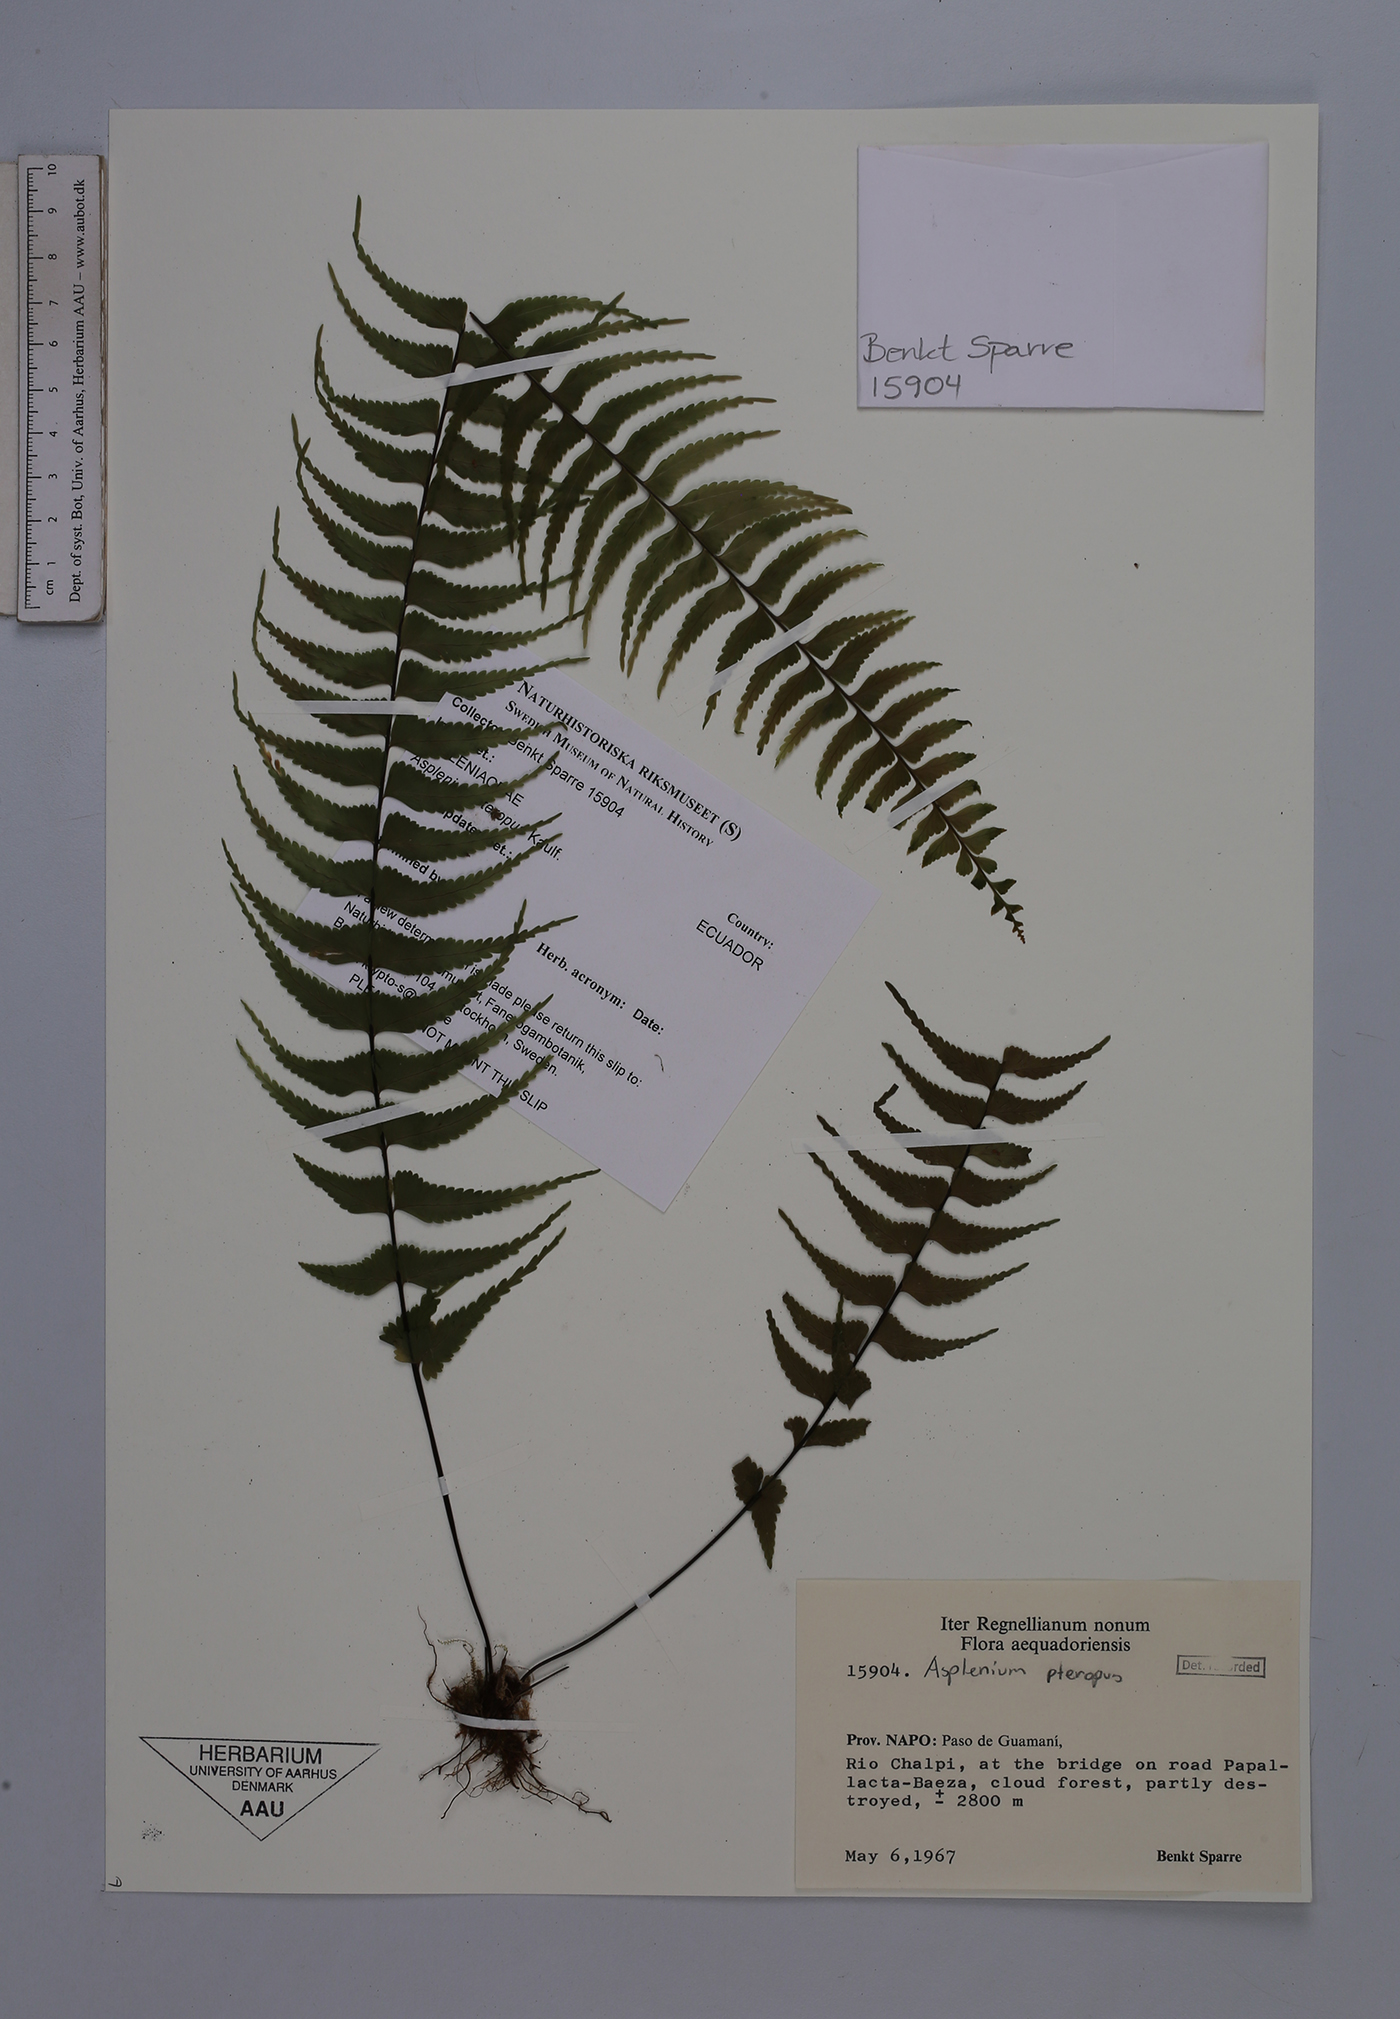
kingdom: Plantae
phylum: Tracheophyta
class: Polypodiopsida
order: Polypodiales
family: Aspleniaceae
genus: Asplenium
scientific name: Asplenium pteropus
